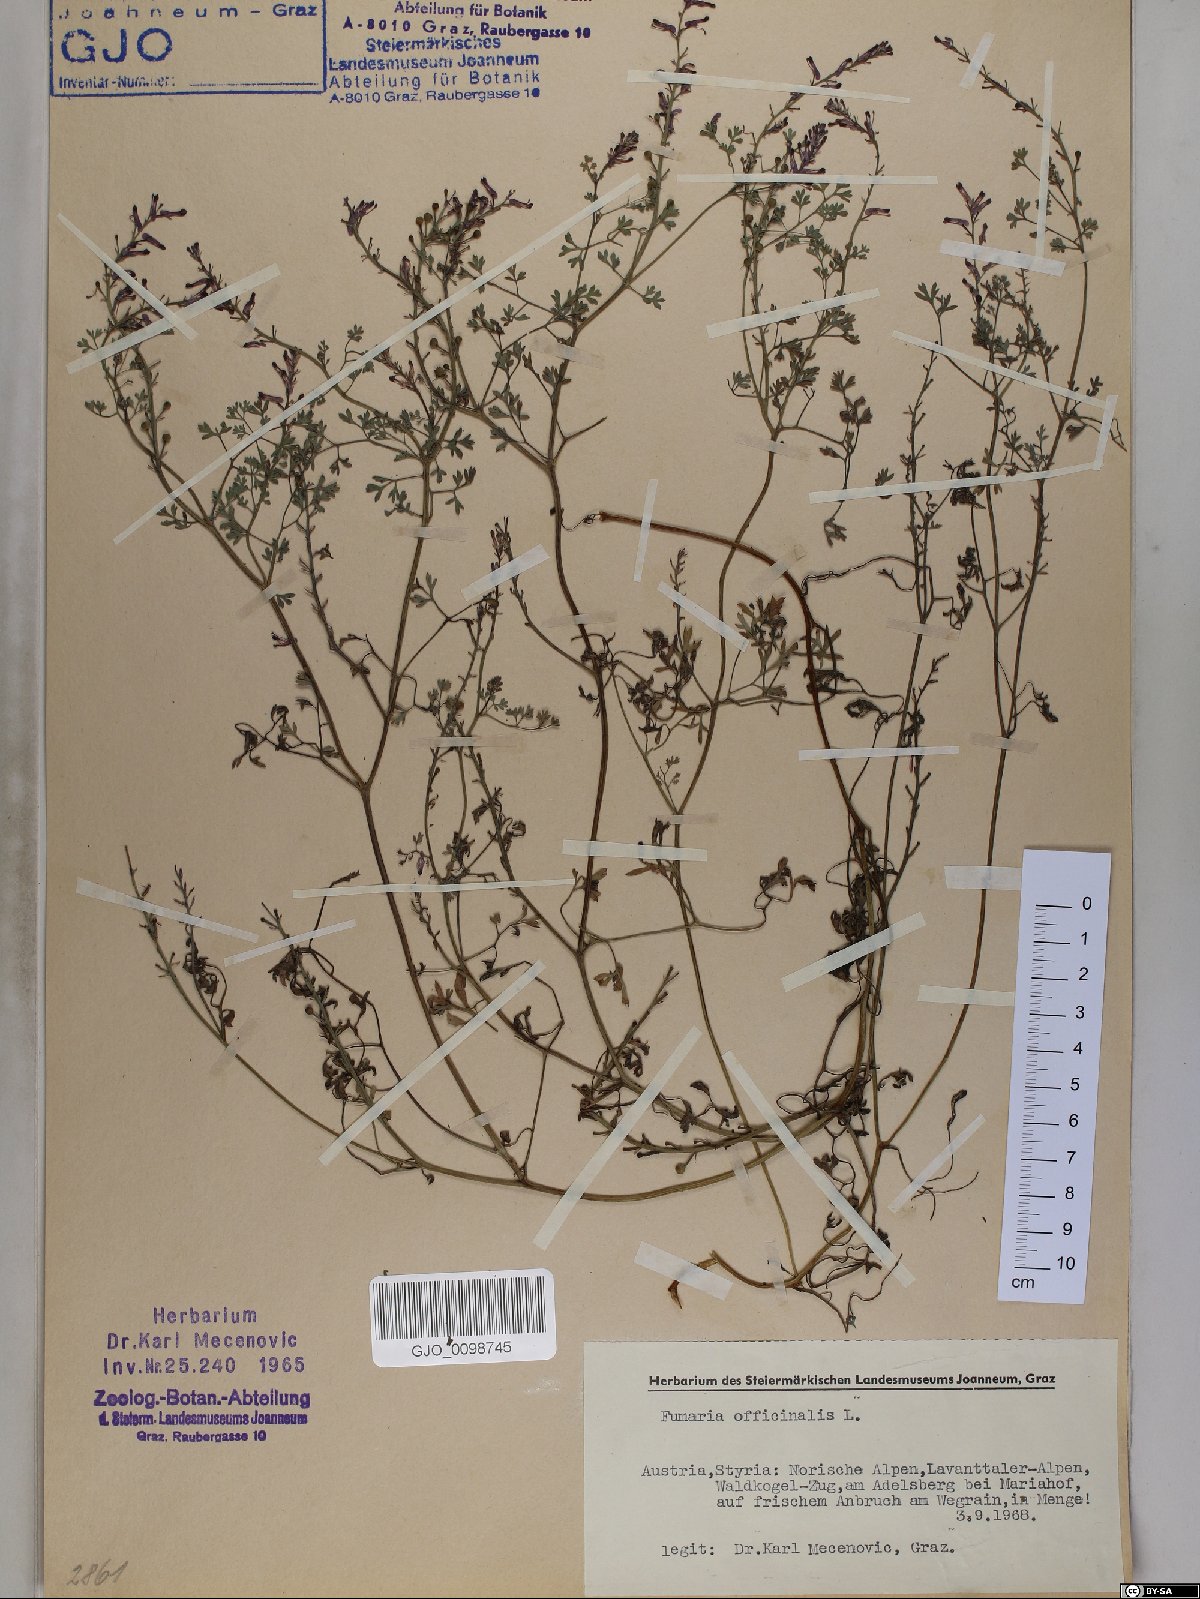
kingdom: Plantae
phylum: Tracheophyta
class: Magnoliopsida
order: Ranunculales
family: Papaveraceae
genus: Fumaria
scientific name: Fumaria officinalis
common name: Common fumitory
